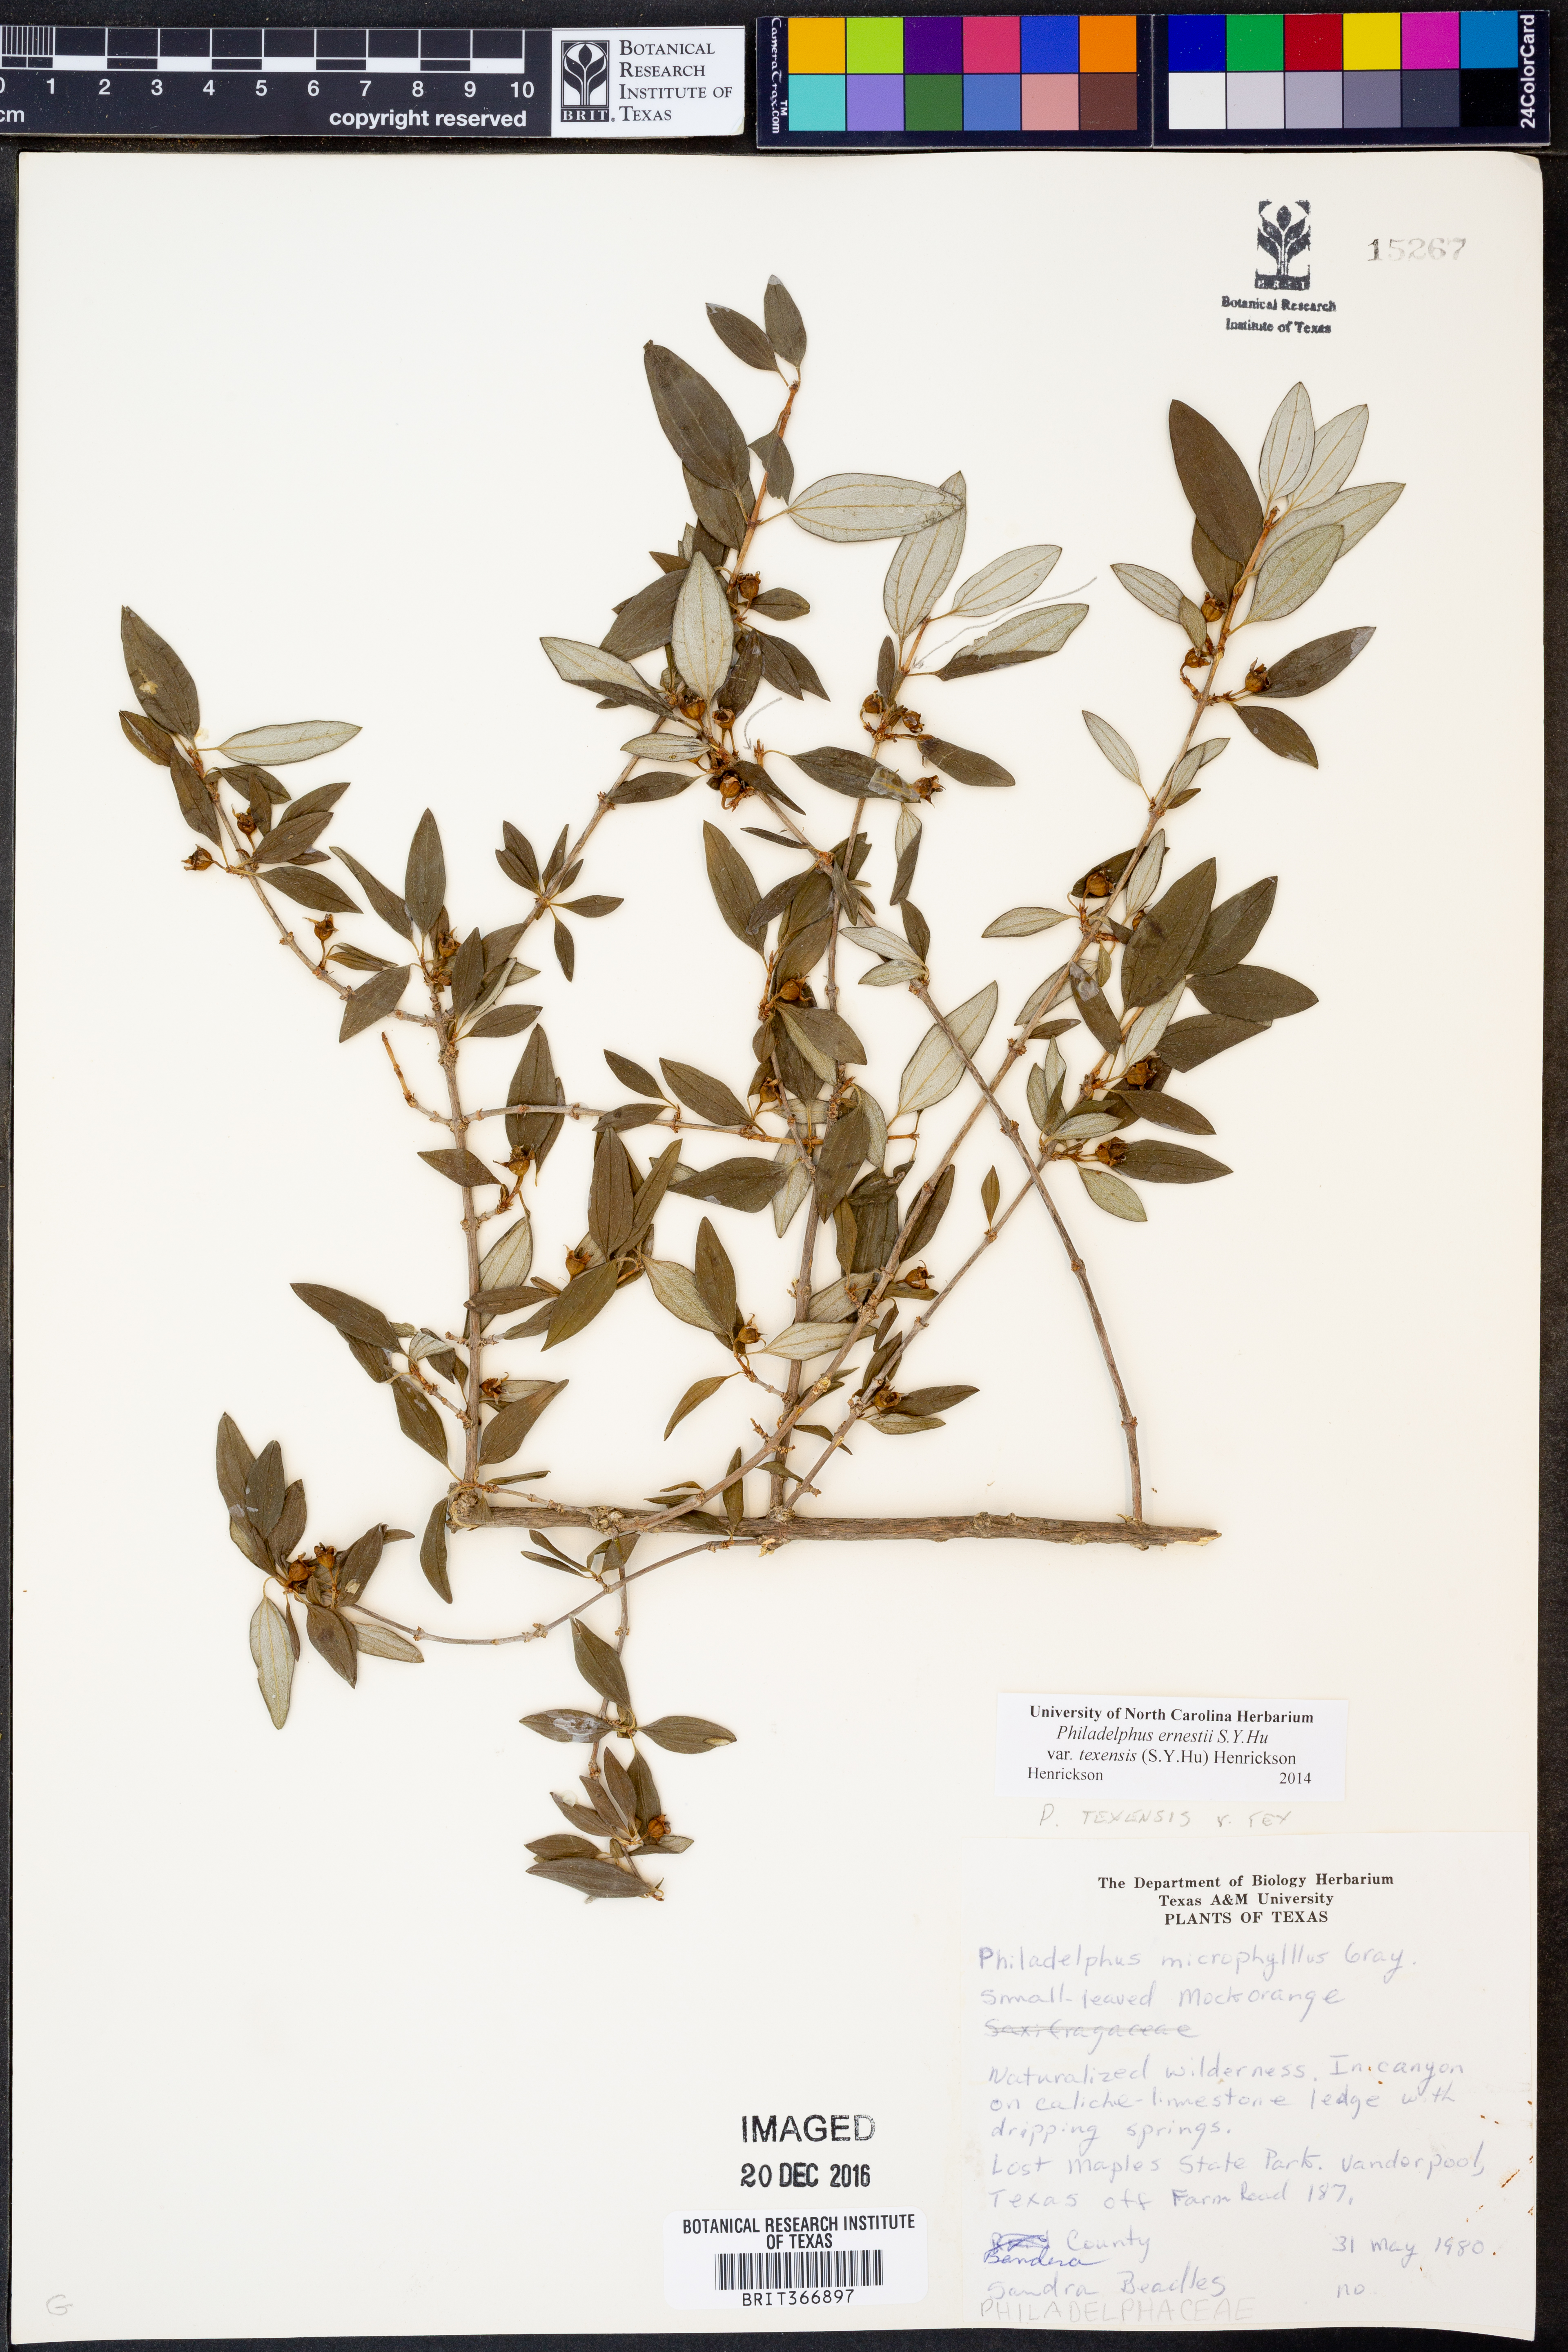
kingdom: Plantae
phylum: Tracheophyta
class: Magnoliopsida
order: Cornales
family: Hydrangeaceae
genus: Philadelphus
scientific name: Philadelphus texensis
